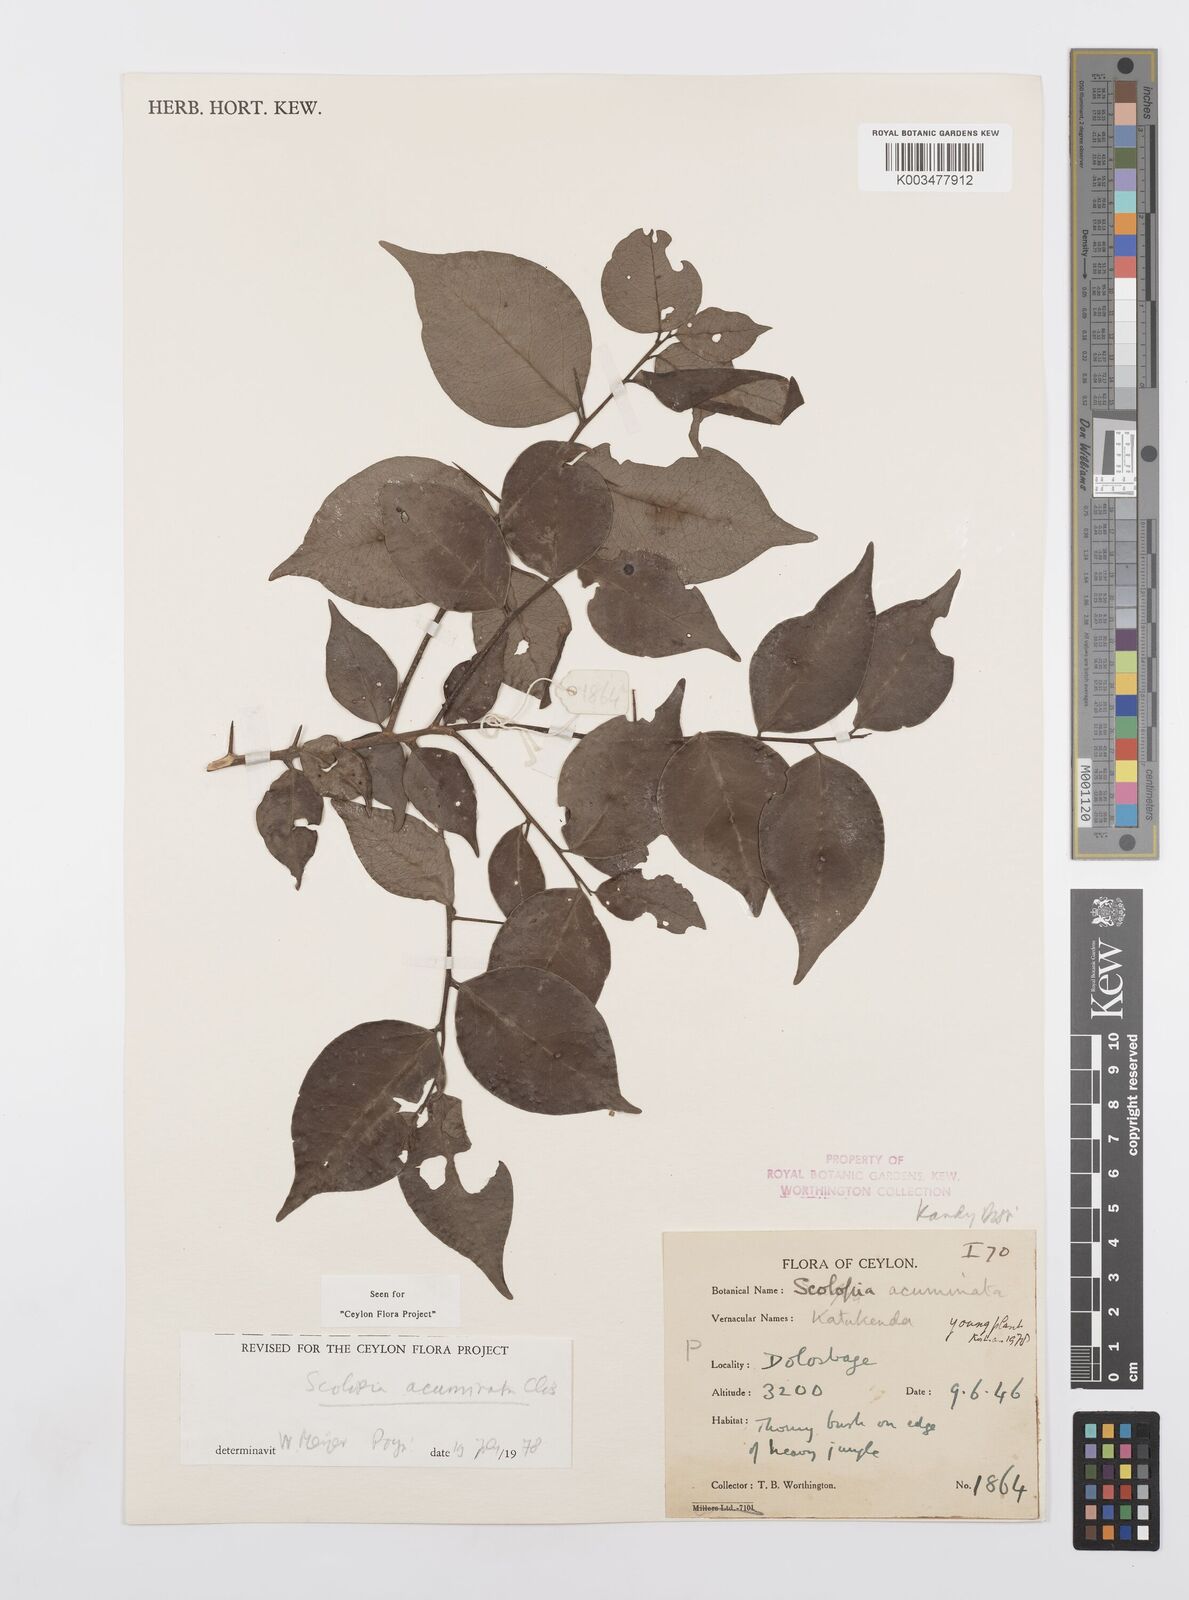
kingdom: Plantae
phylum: Tracheophyta
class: Magnoliopsida
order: Malpighiales
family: Salicaceae
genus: Scolopia
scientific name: Scolopia acuminata
